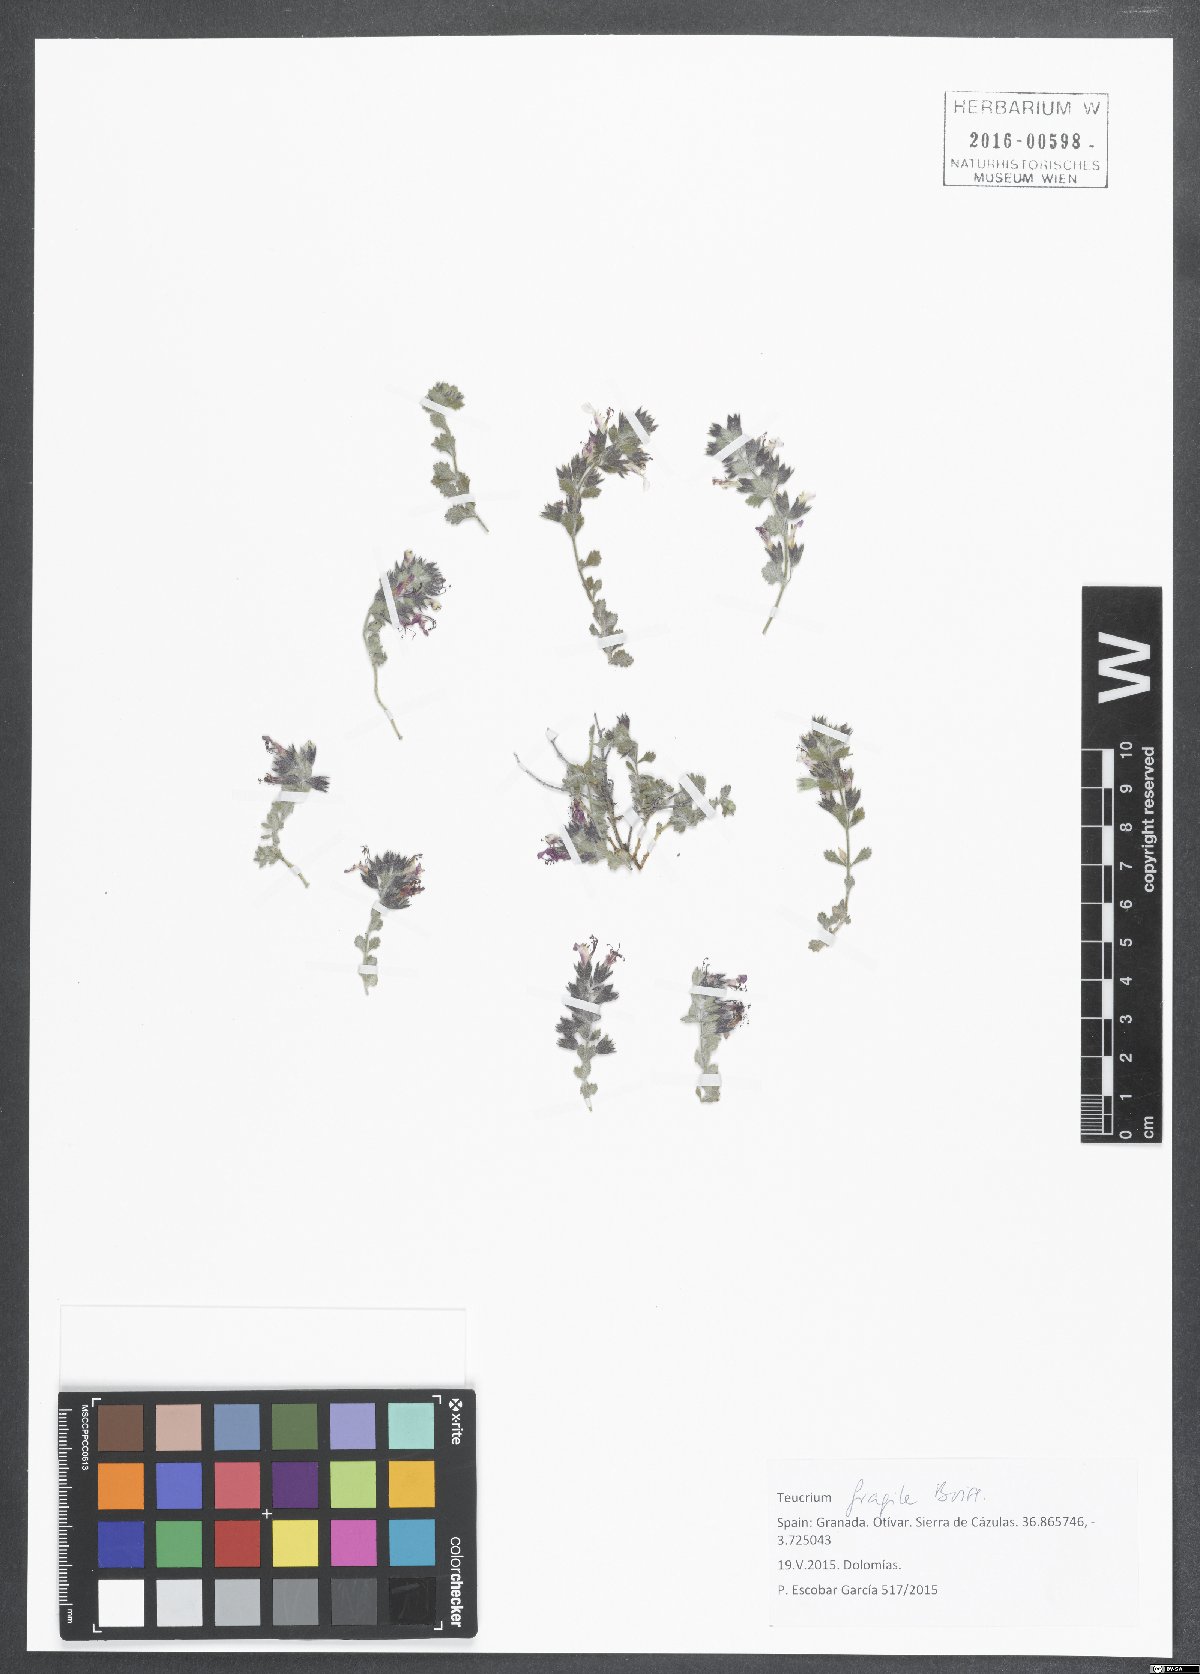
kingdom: Plantae
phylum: Tracheophyta
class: Magnoliopsida
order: Lamiales
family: Lamiaceae
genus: Teucrium
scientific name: Teucrium fragile
